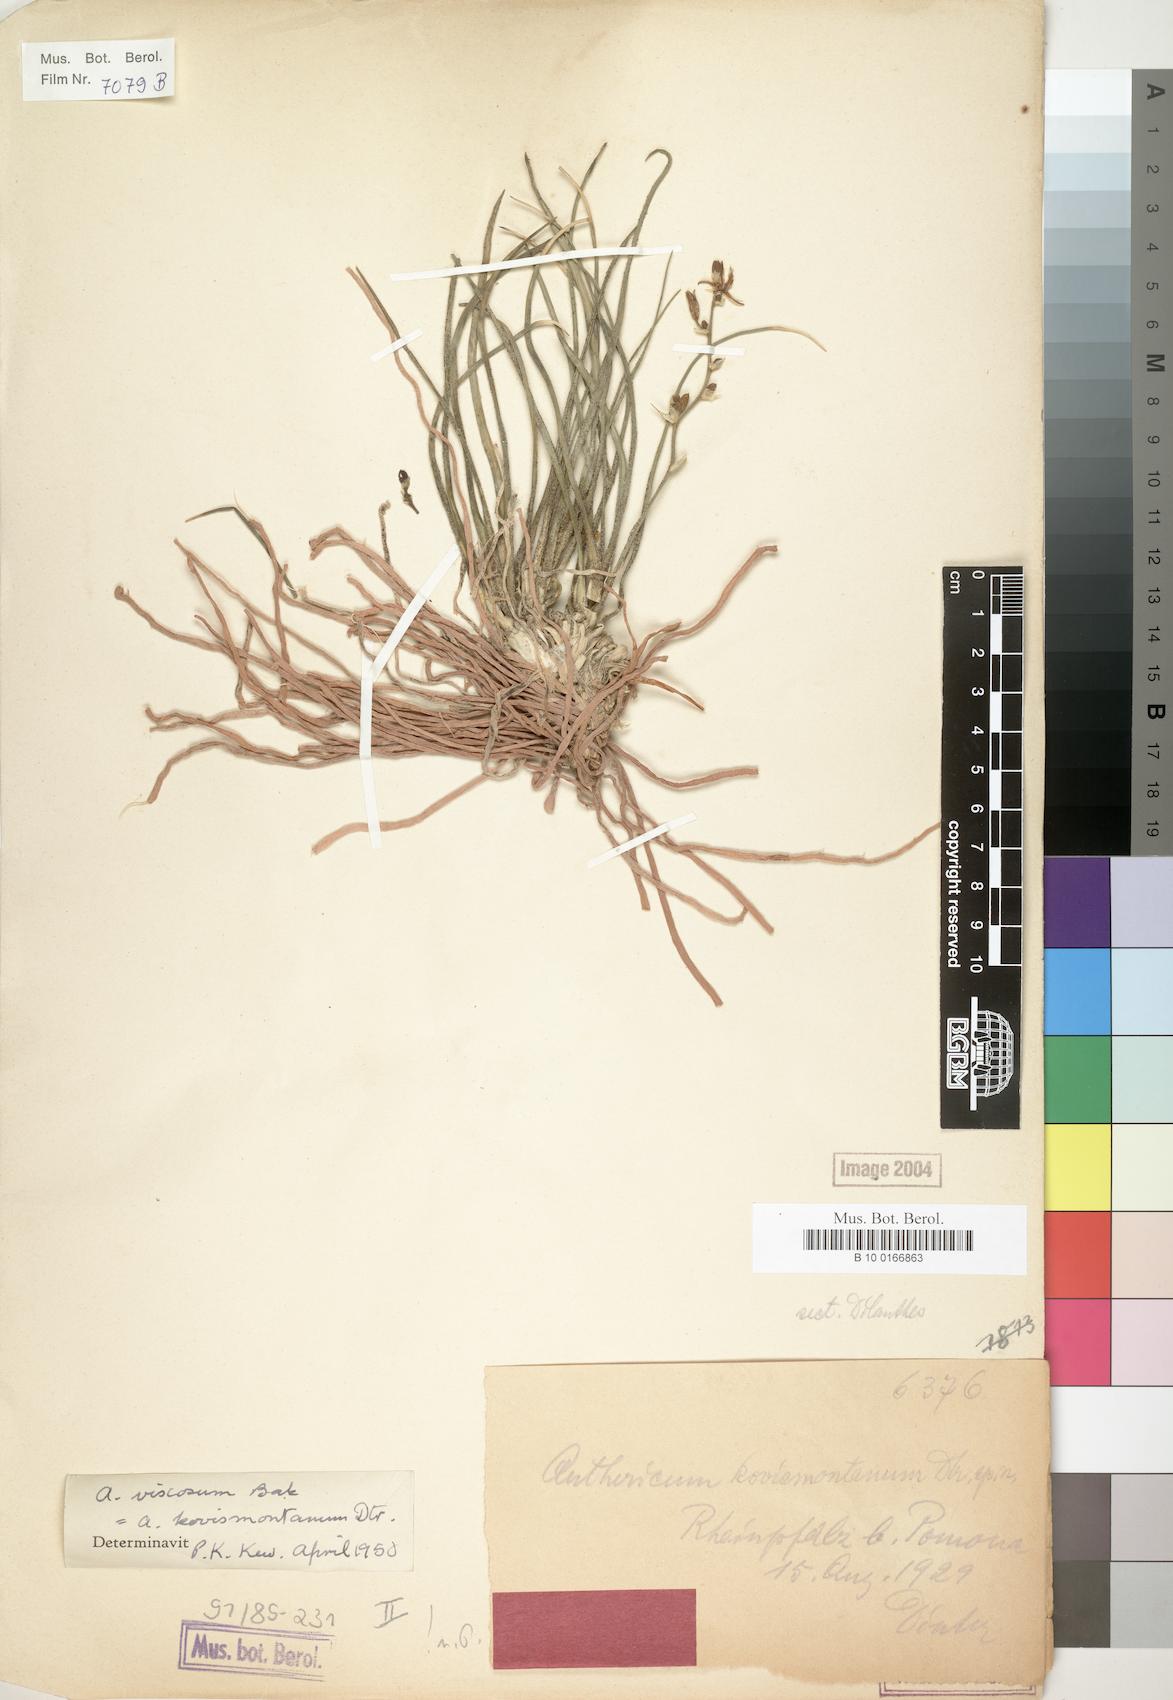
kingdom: Plantae
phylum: Tracheophyta
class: Liliopsida
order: Asparagales
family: Asparagaceae
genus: Chlorophytum
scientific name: Chlorophytum viscosum
